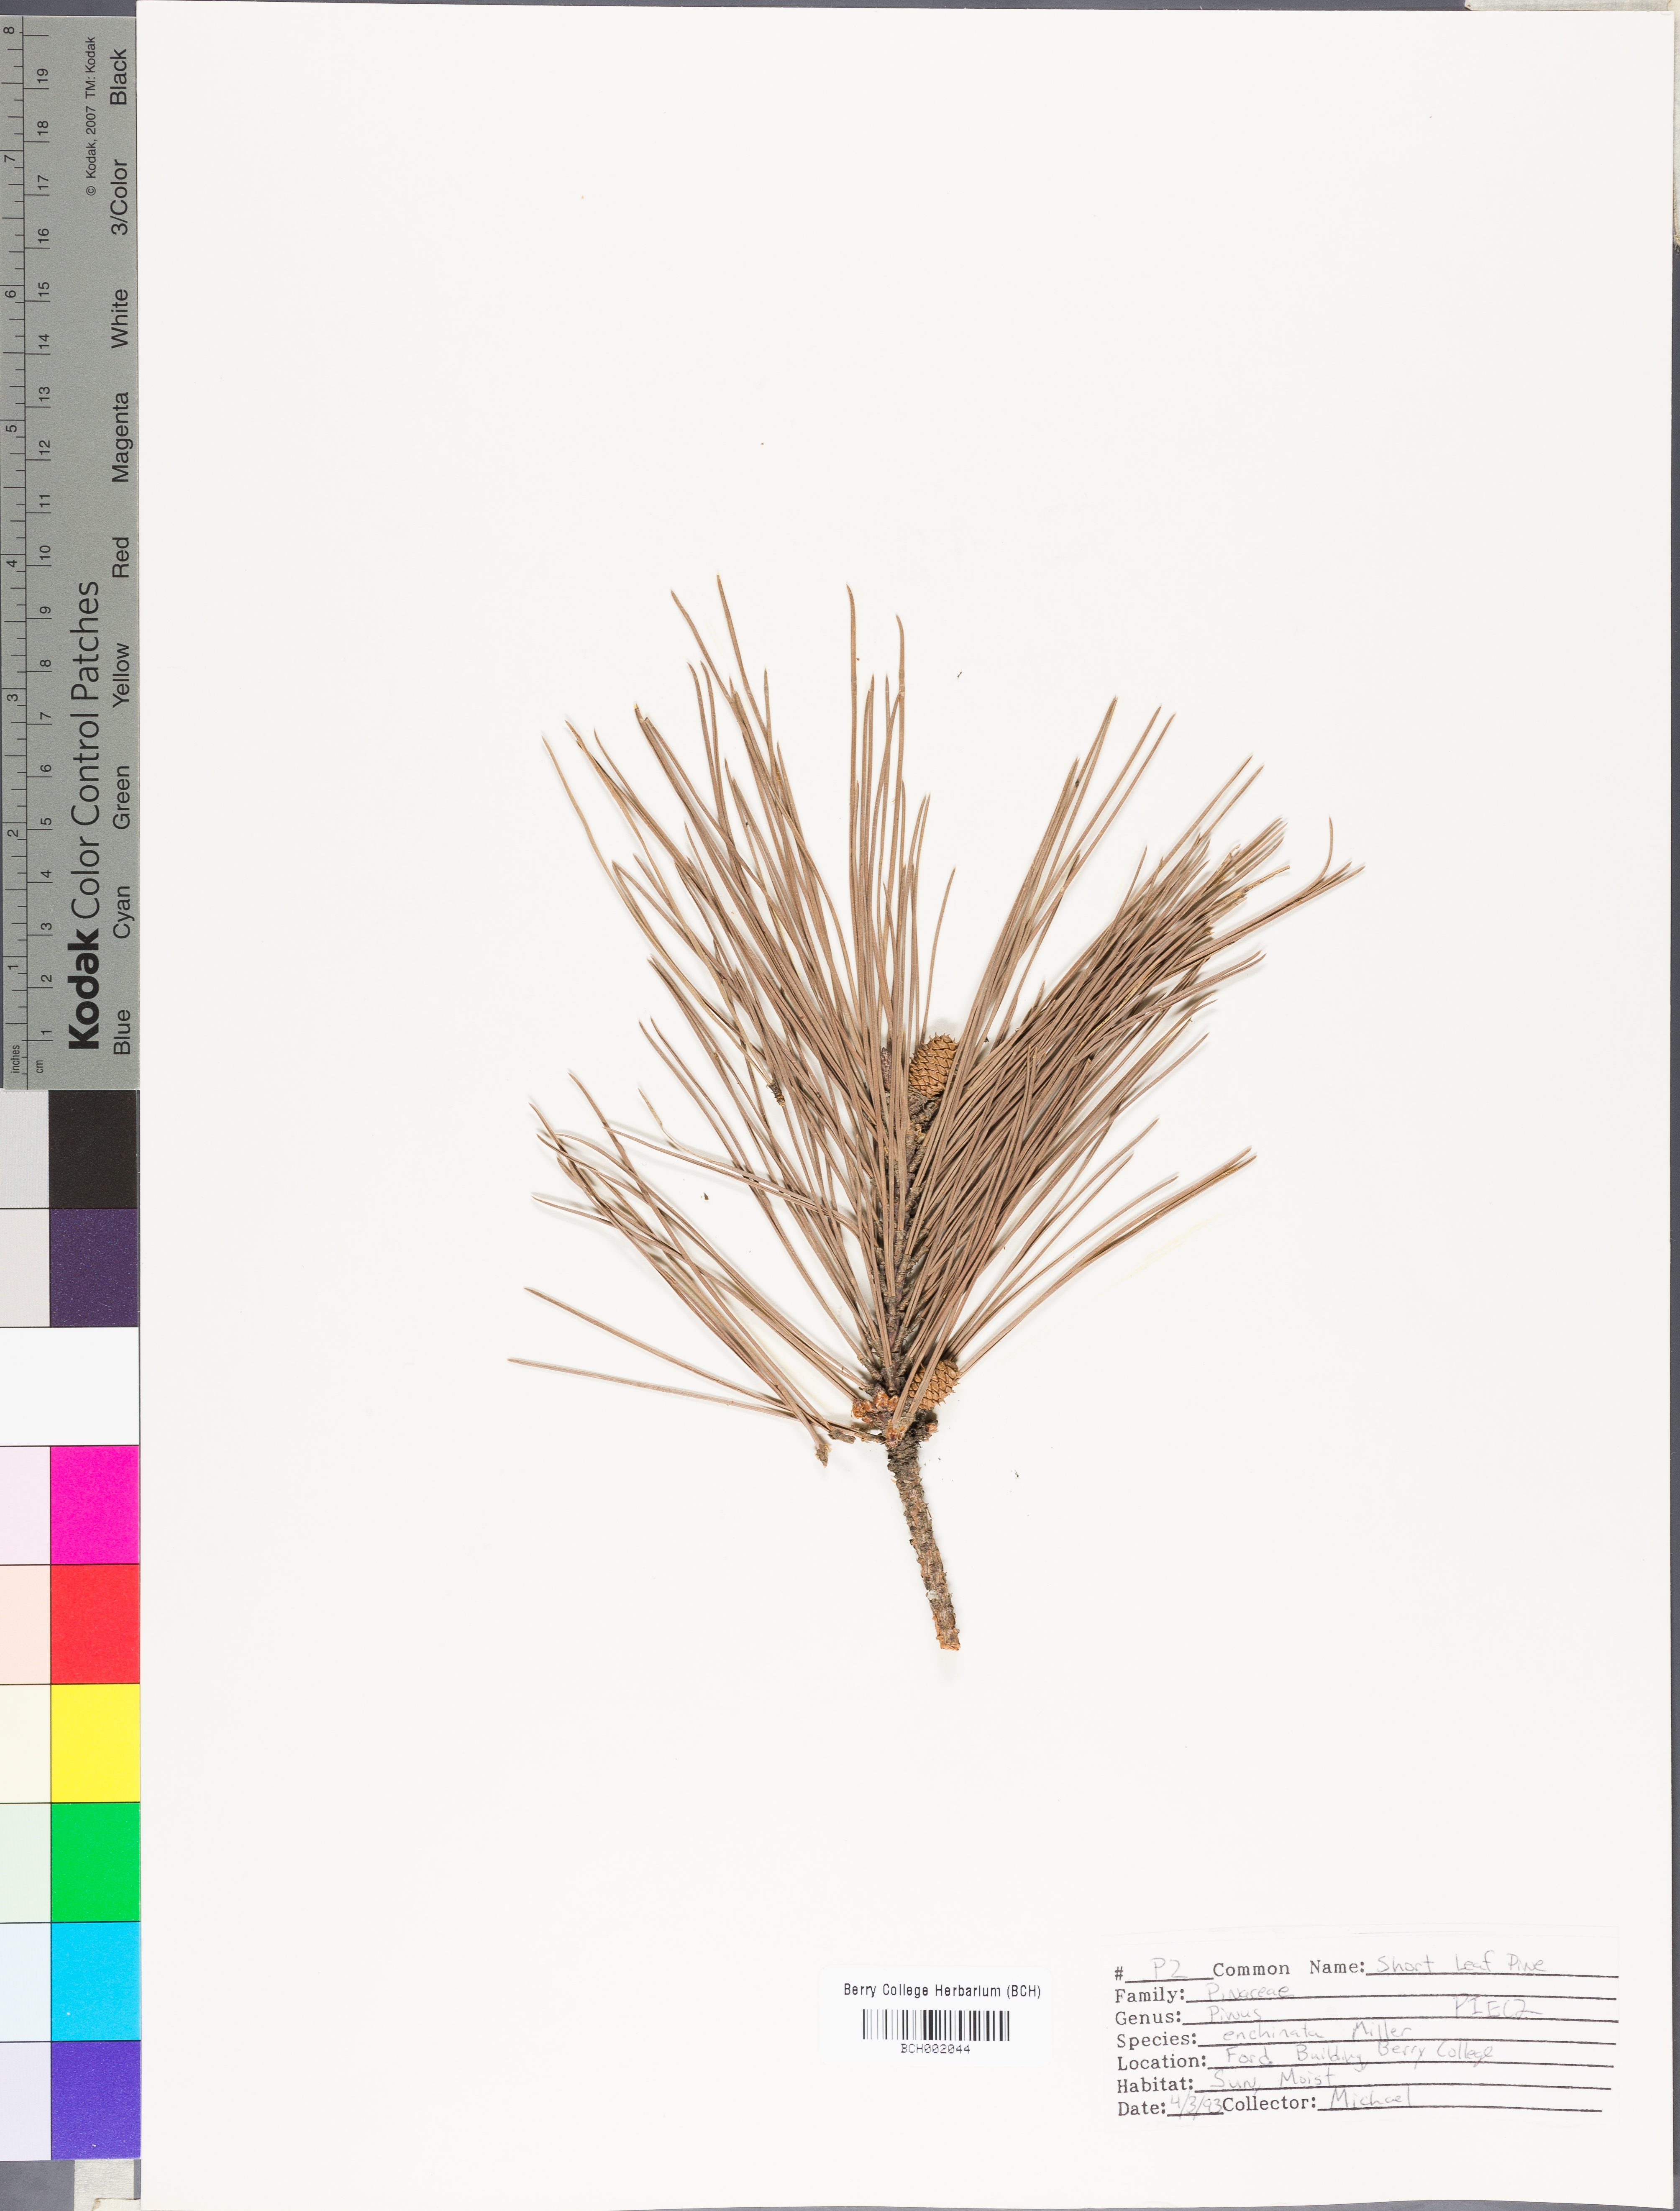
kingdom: Plantae
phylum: Tracheophyta
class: Pinopsida
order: Pinales
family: Pinaceae
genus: Pinus
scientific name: Pinus echinata
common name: Shortleaf pine
